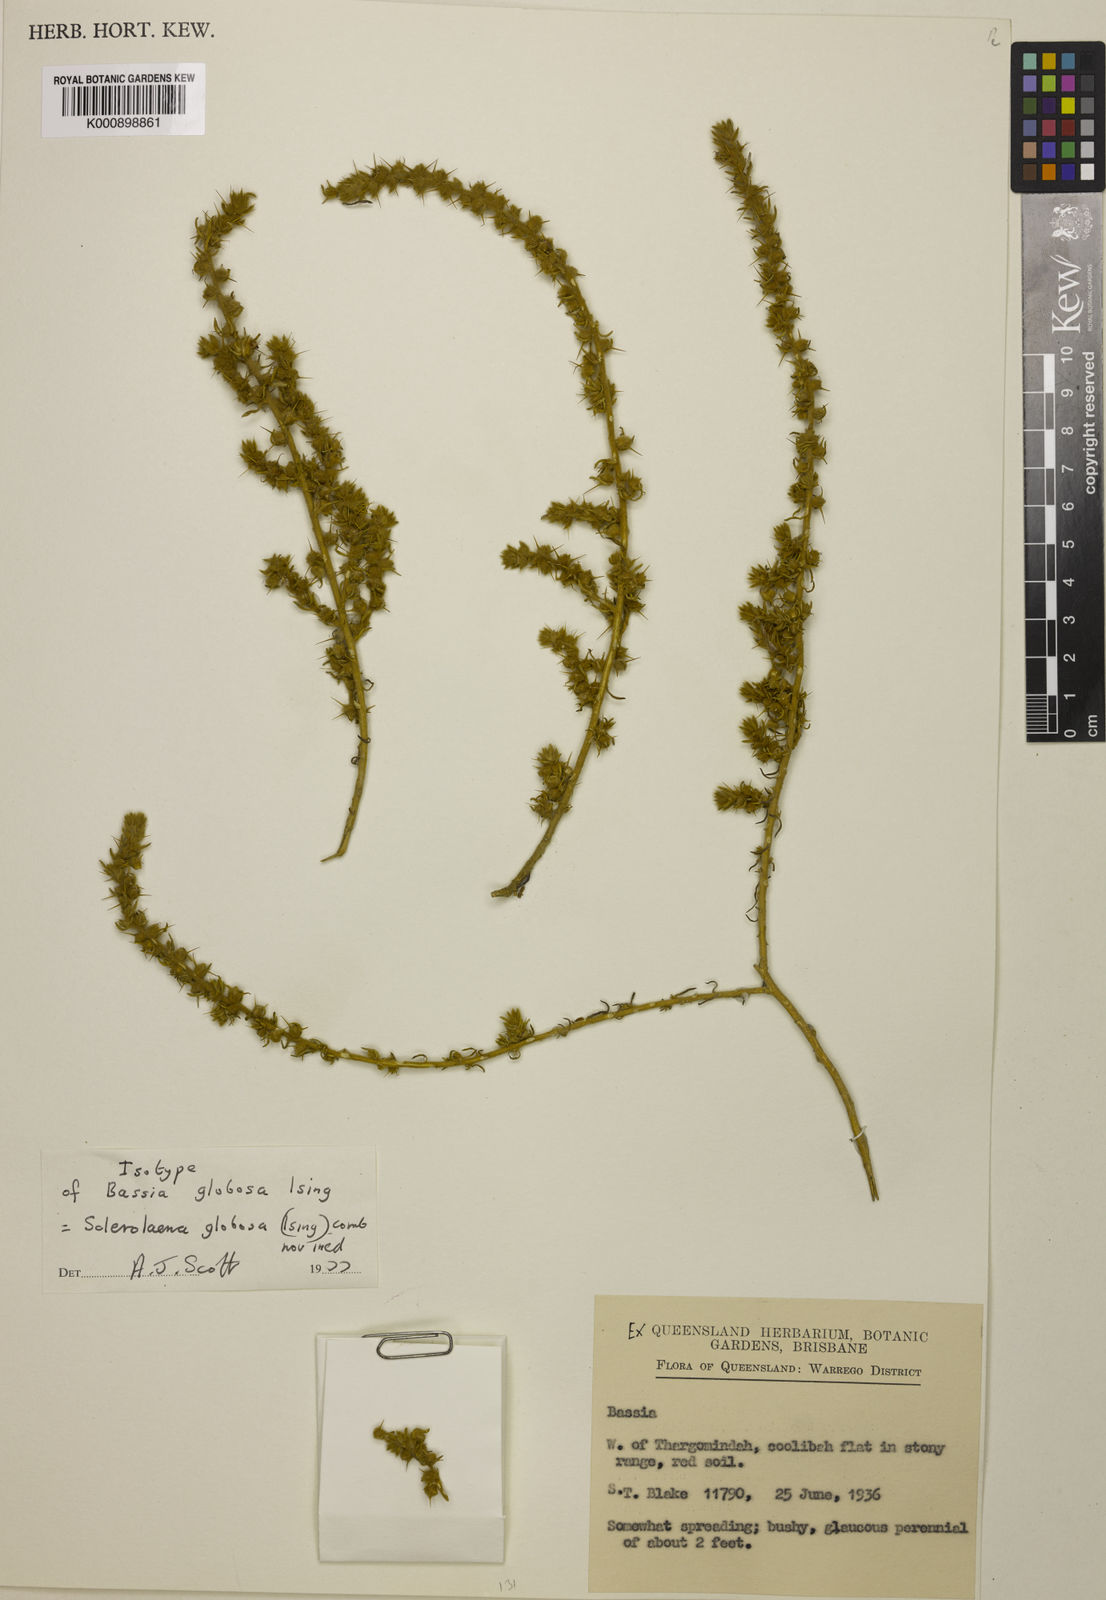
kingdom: Plantae
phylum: Tracheophyta
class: Magnoliopsida
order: Caryophyllales
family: Amaranthaceae
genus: Sclerolaena
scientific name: Sclerolaena globosa
